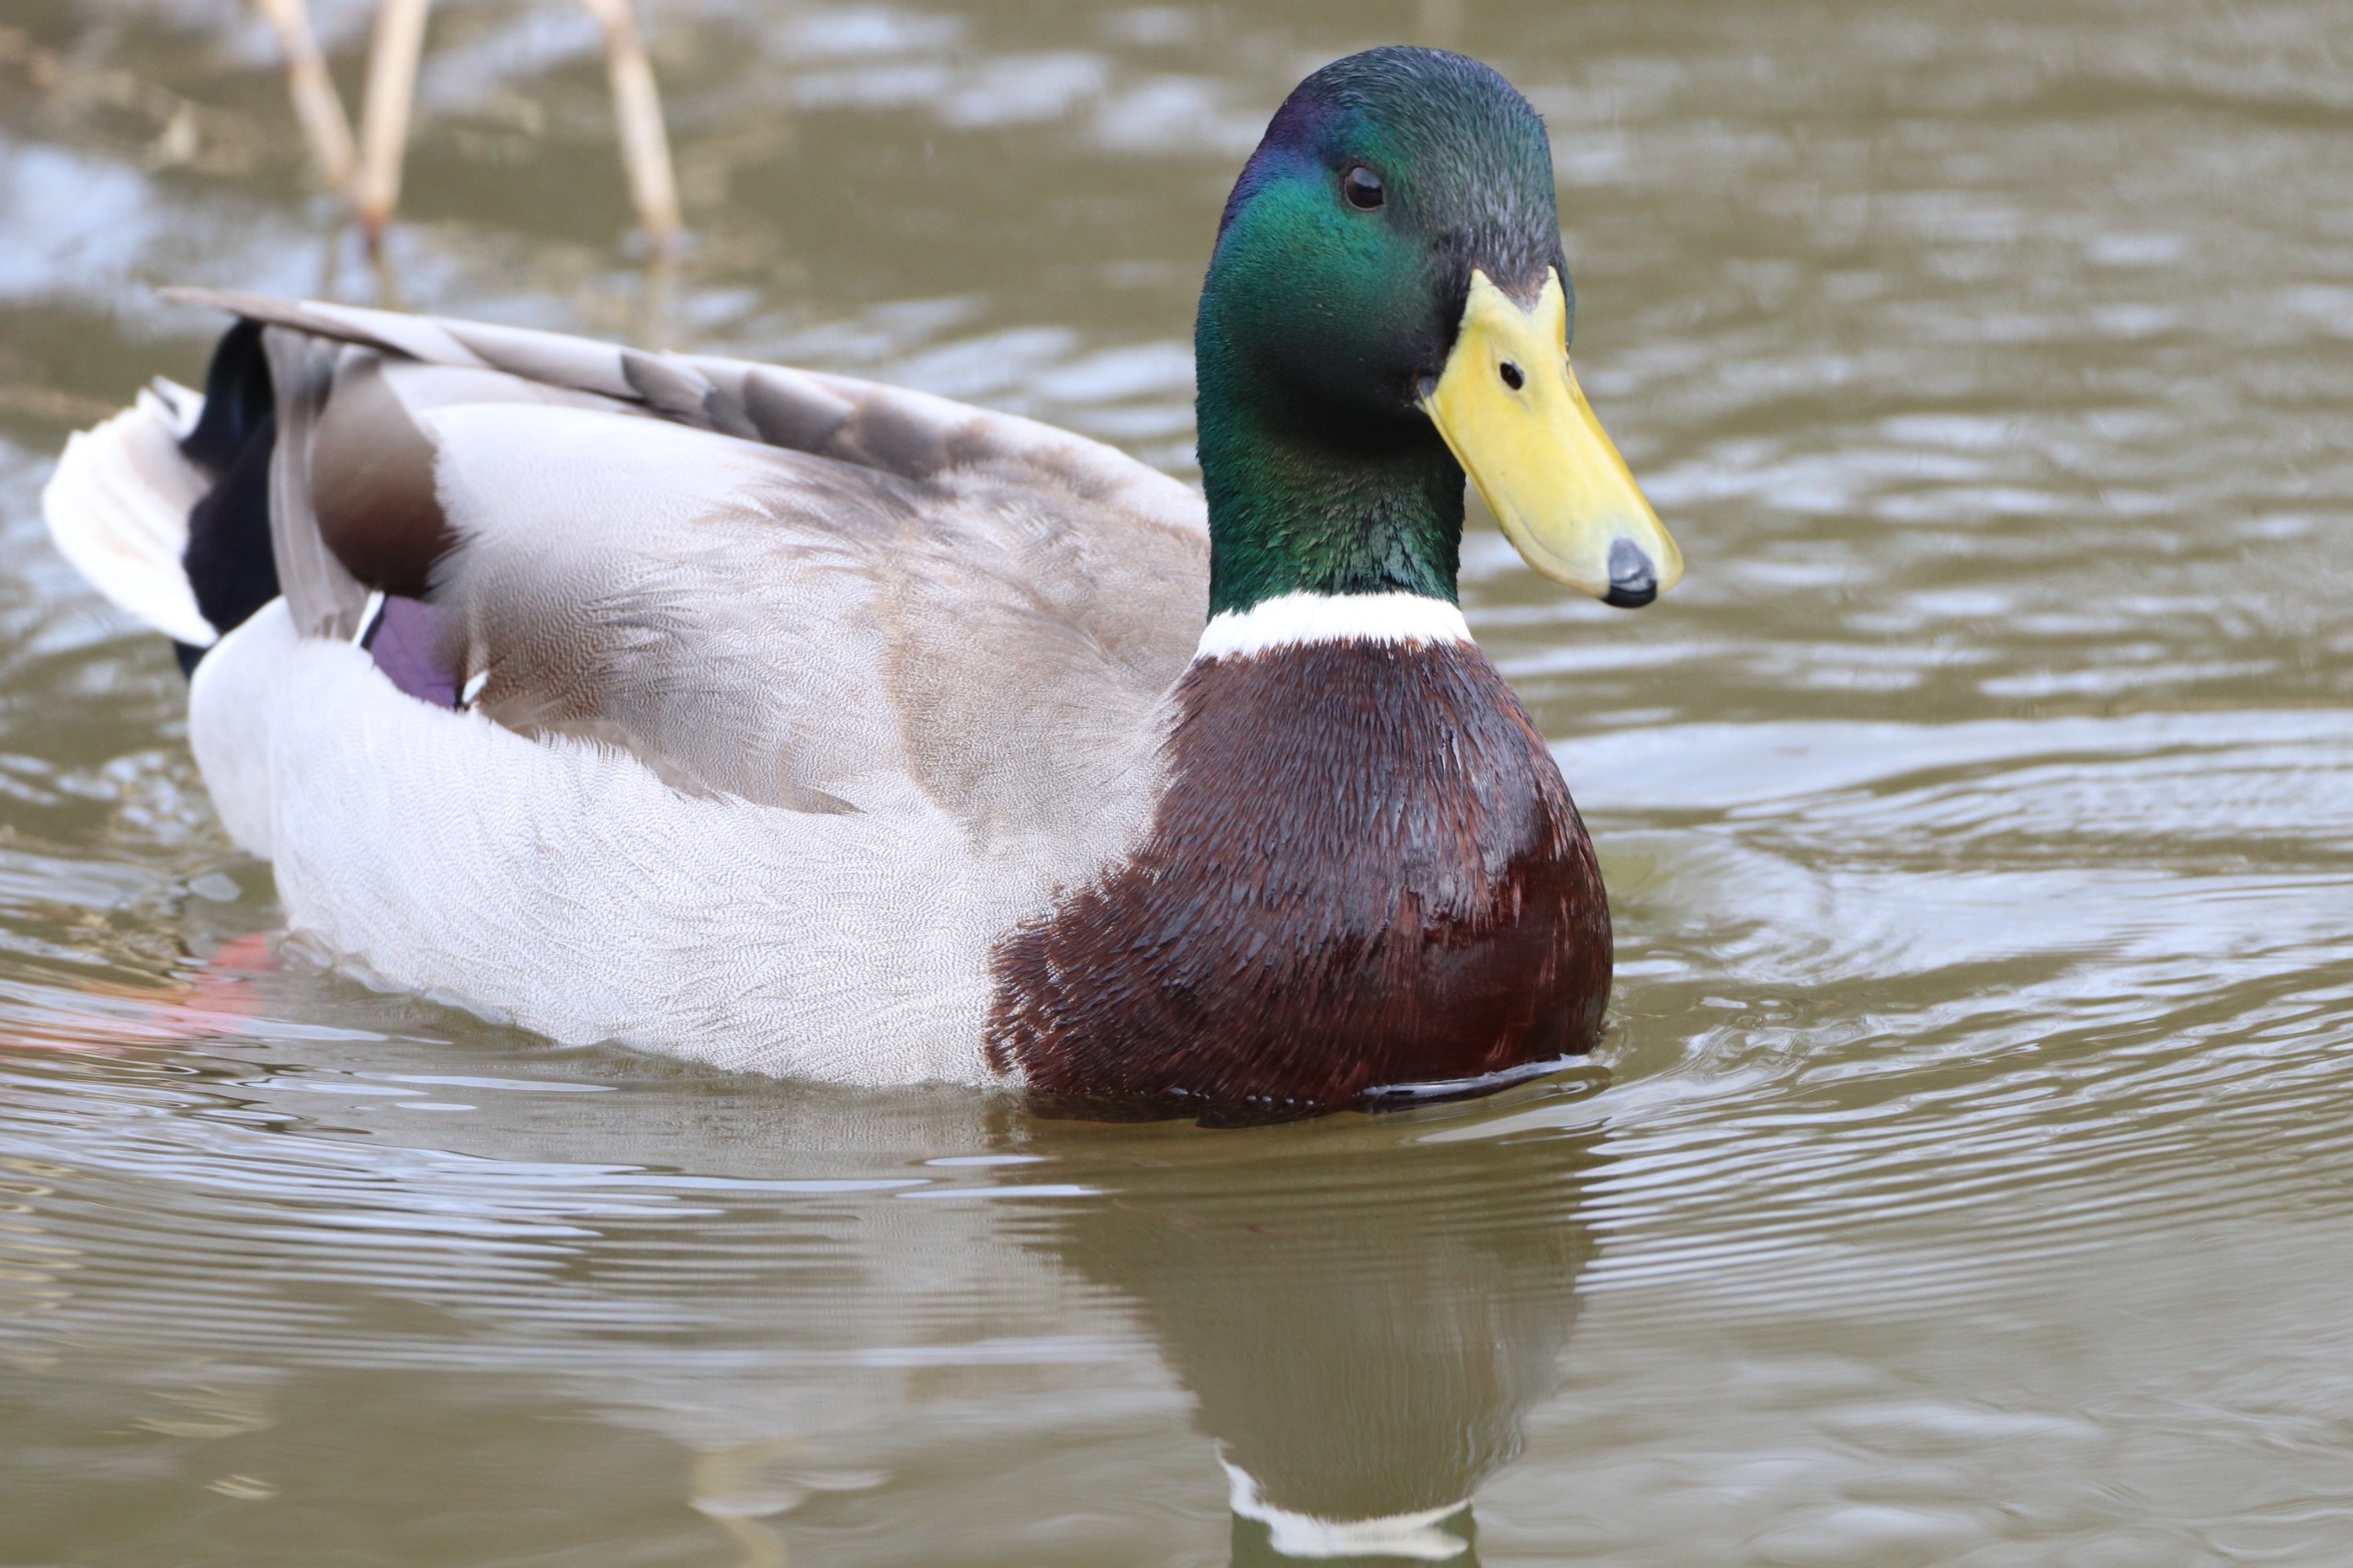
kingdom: Animalia
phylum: Chordata
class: Aves
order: Anseriformes
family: Anatidae
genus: Anas
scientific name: Anas platyrhynchos
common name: Gråand
